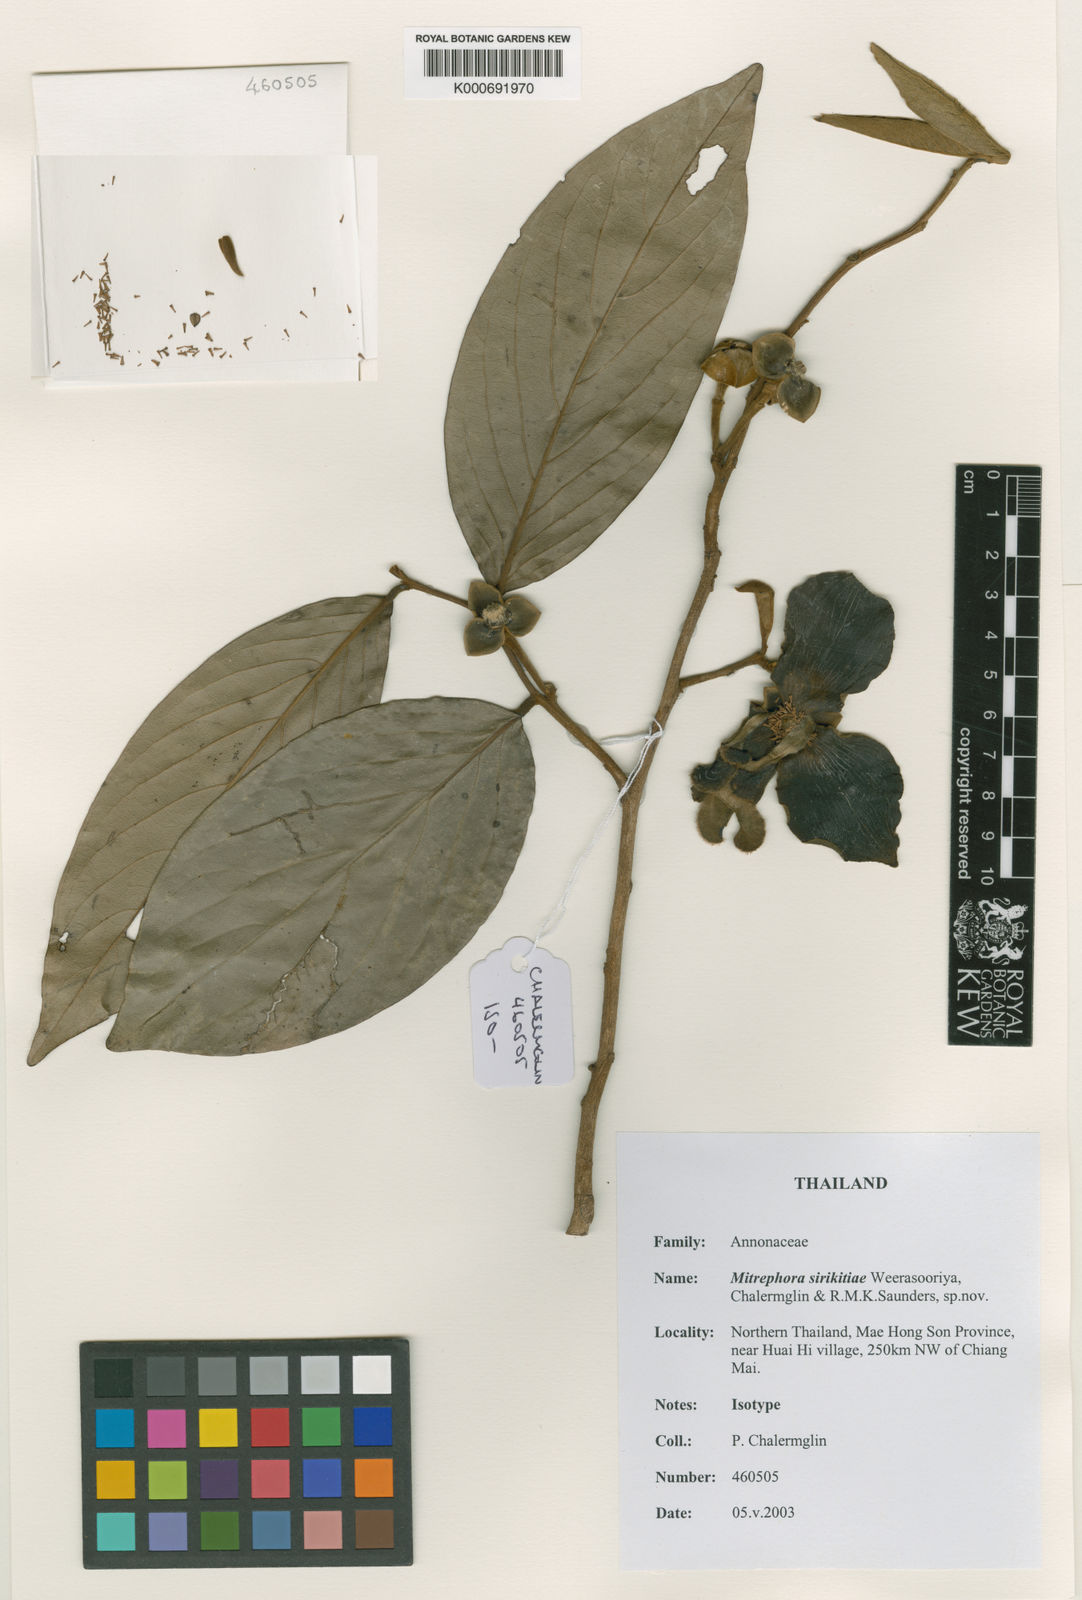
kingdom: Plantae
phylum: Tracheophyta
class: Magnoliopsida
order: Magnoliales
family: Annonaceae
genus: Mitrephora
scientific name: Mitrephora sirikitiae
